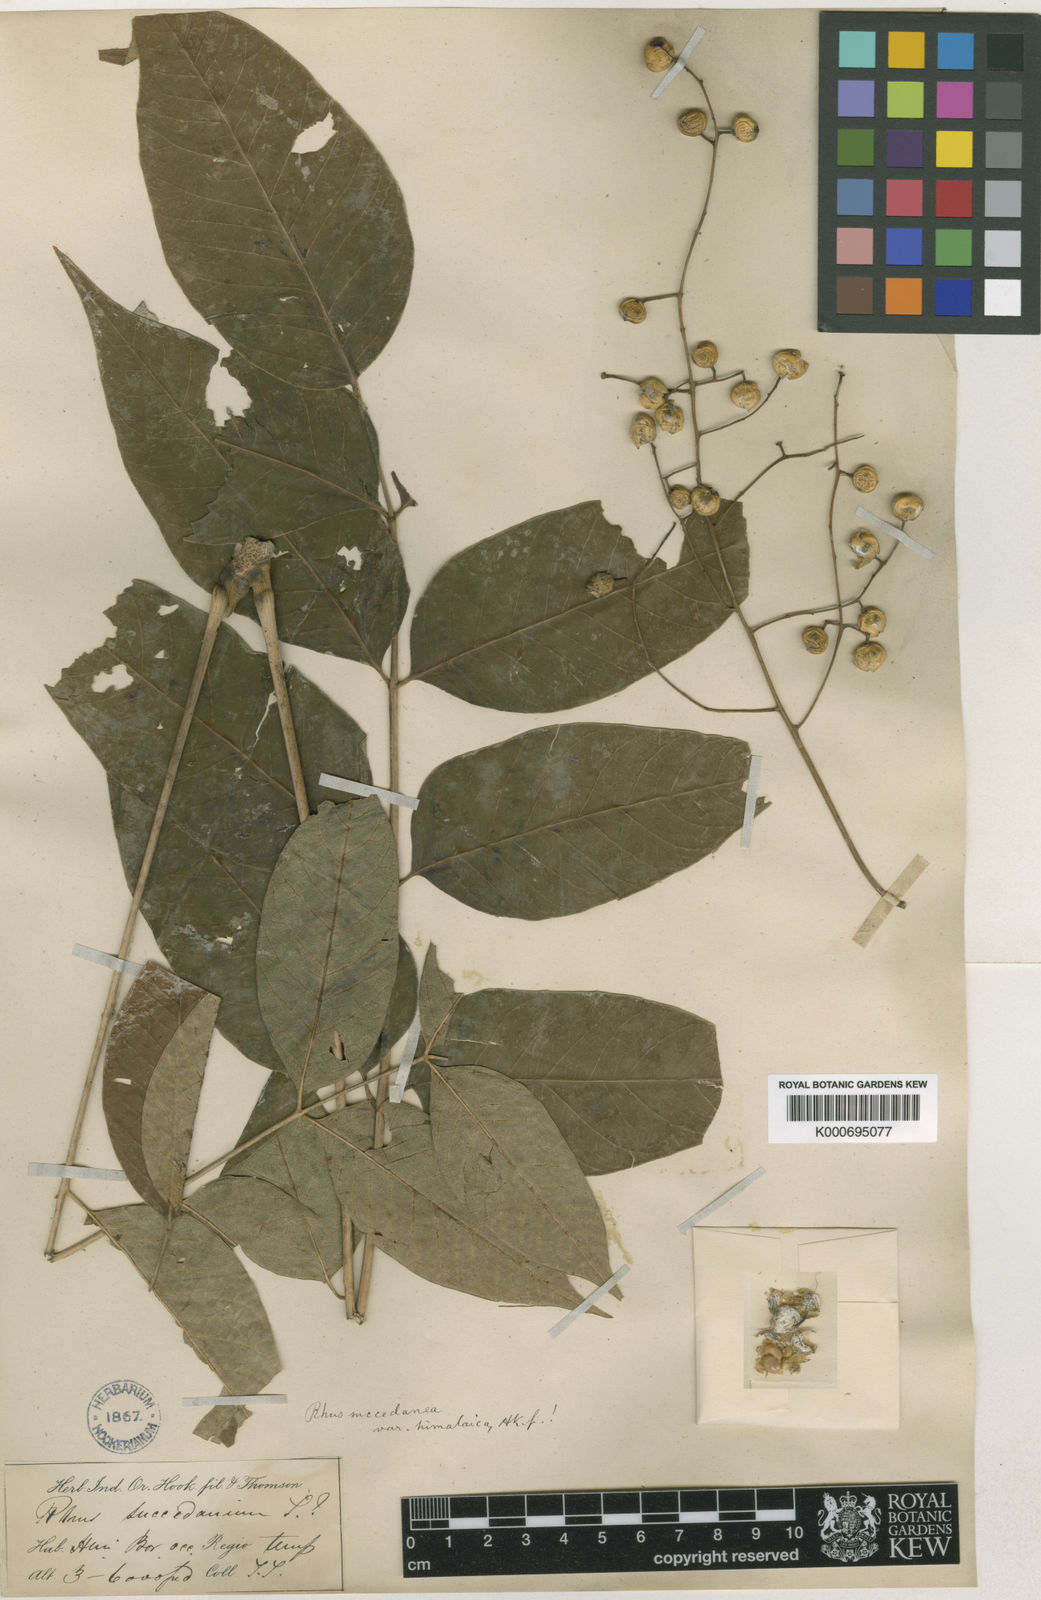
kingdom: Plantae
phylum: Tracheophyta
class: Magnoliopsida
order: Sapindales
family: Anacardiaceae
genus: Toxicodendron
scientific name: Toxicodendron succedaneum
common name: Wax tree
